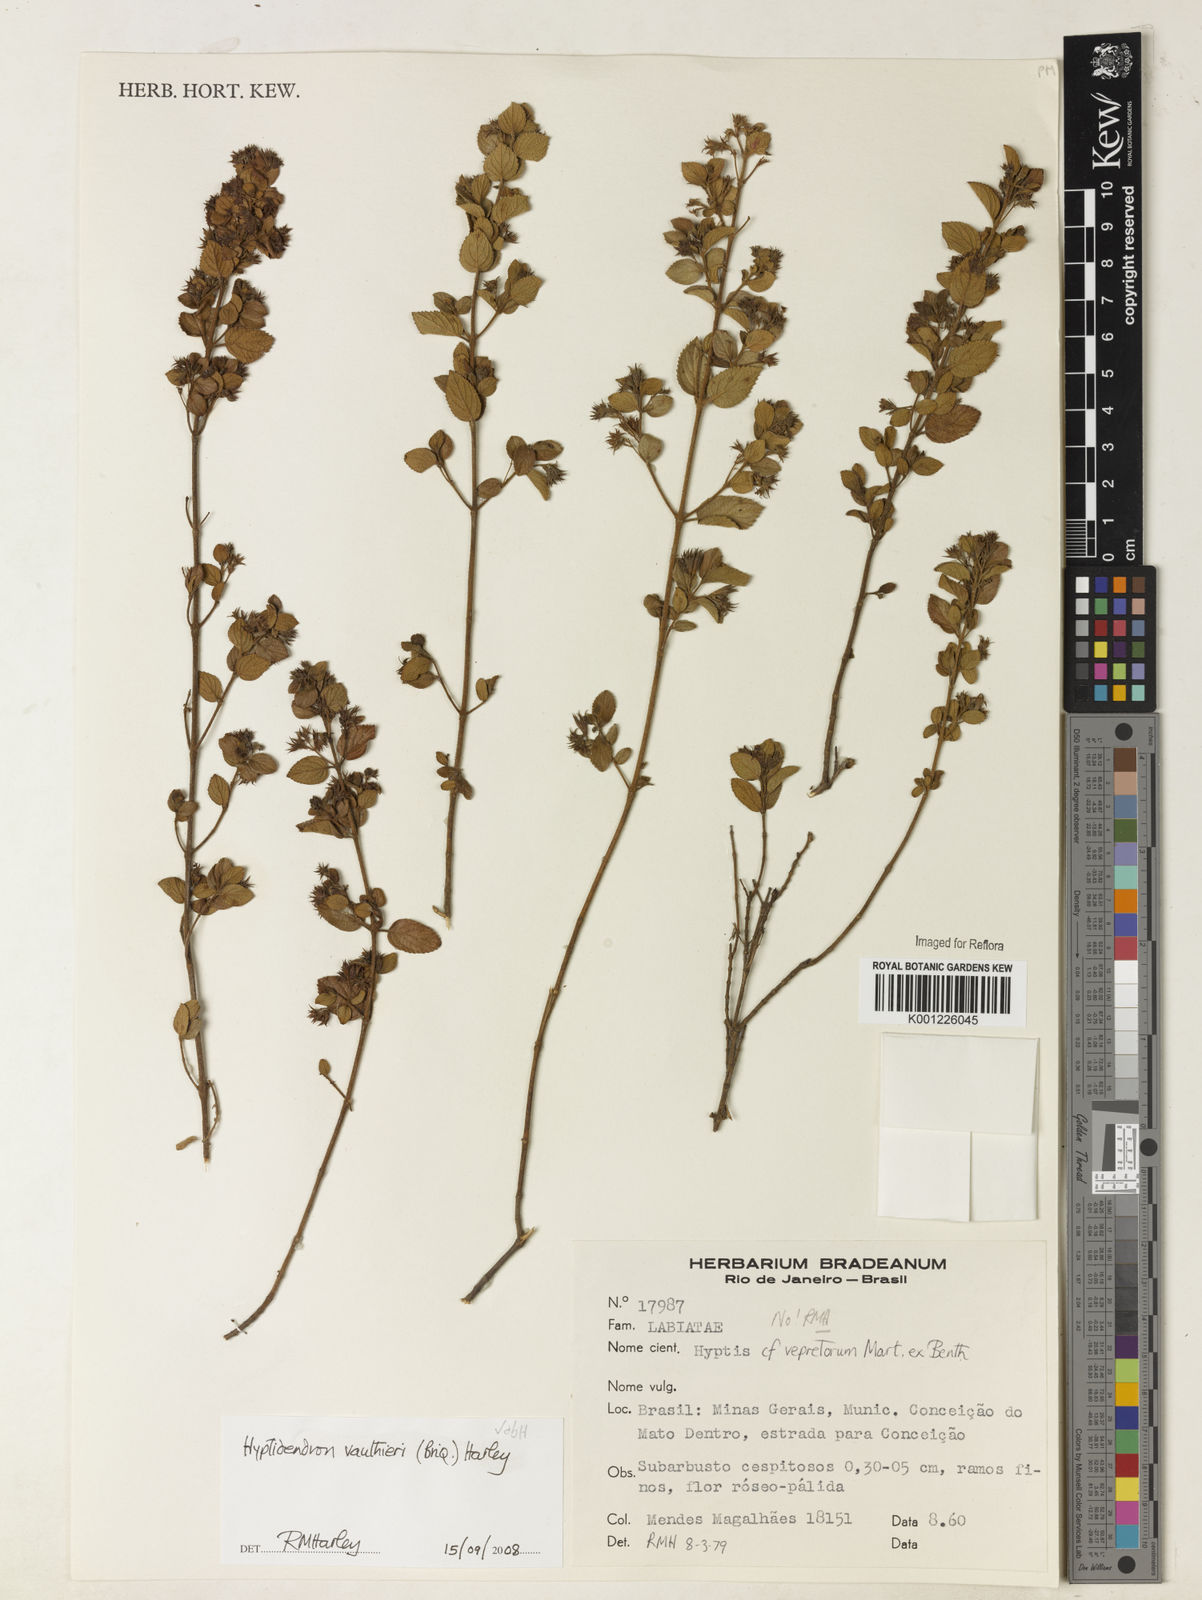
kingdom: Plantae
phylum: Tracheophyta
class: Magnoliopsida
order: Lamiales
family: Lamiaceae
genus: Hyptidendron
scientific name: Hyptidendron vauthieri
